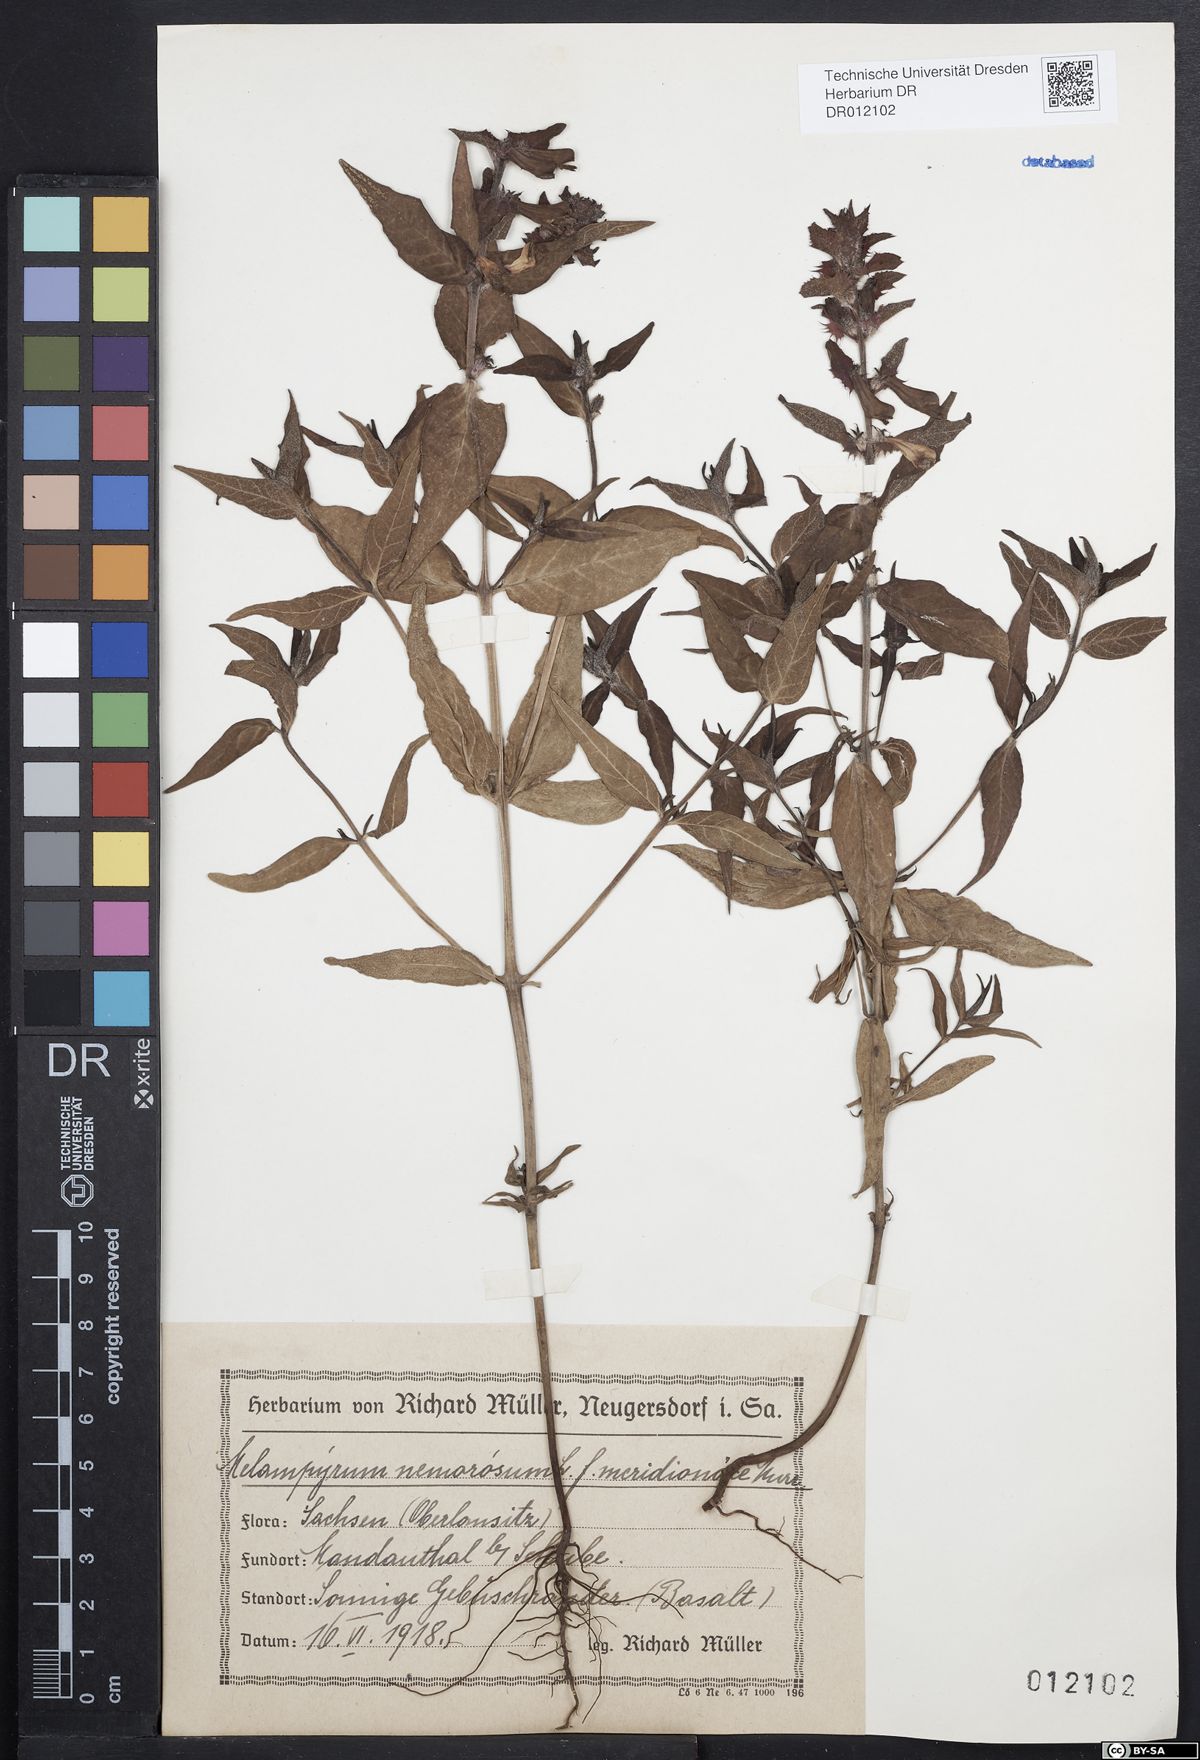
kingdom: Plantae
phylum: Tracheophyta
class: Magnoliopsida
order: Lamiales
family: Orobanchaceae
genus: Melampyrum
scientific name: Melampyrum nemorosum
